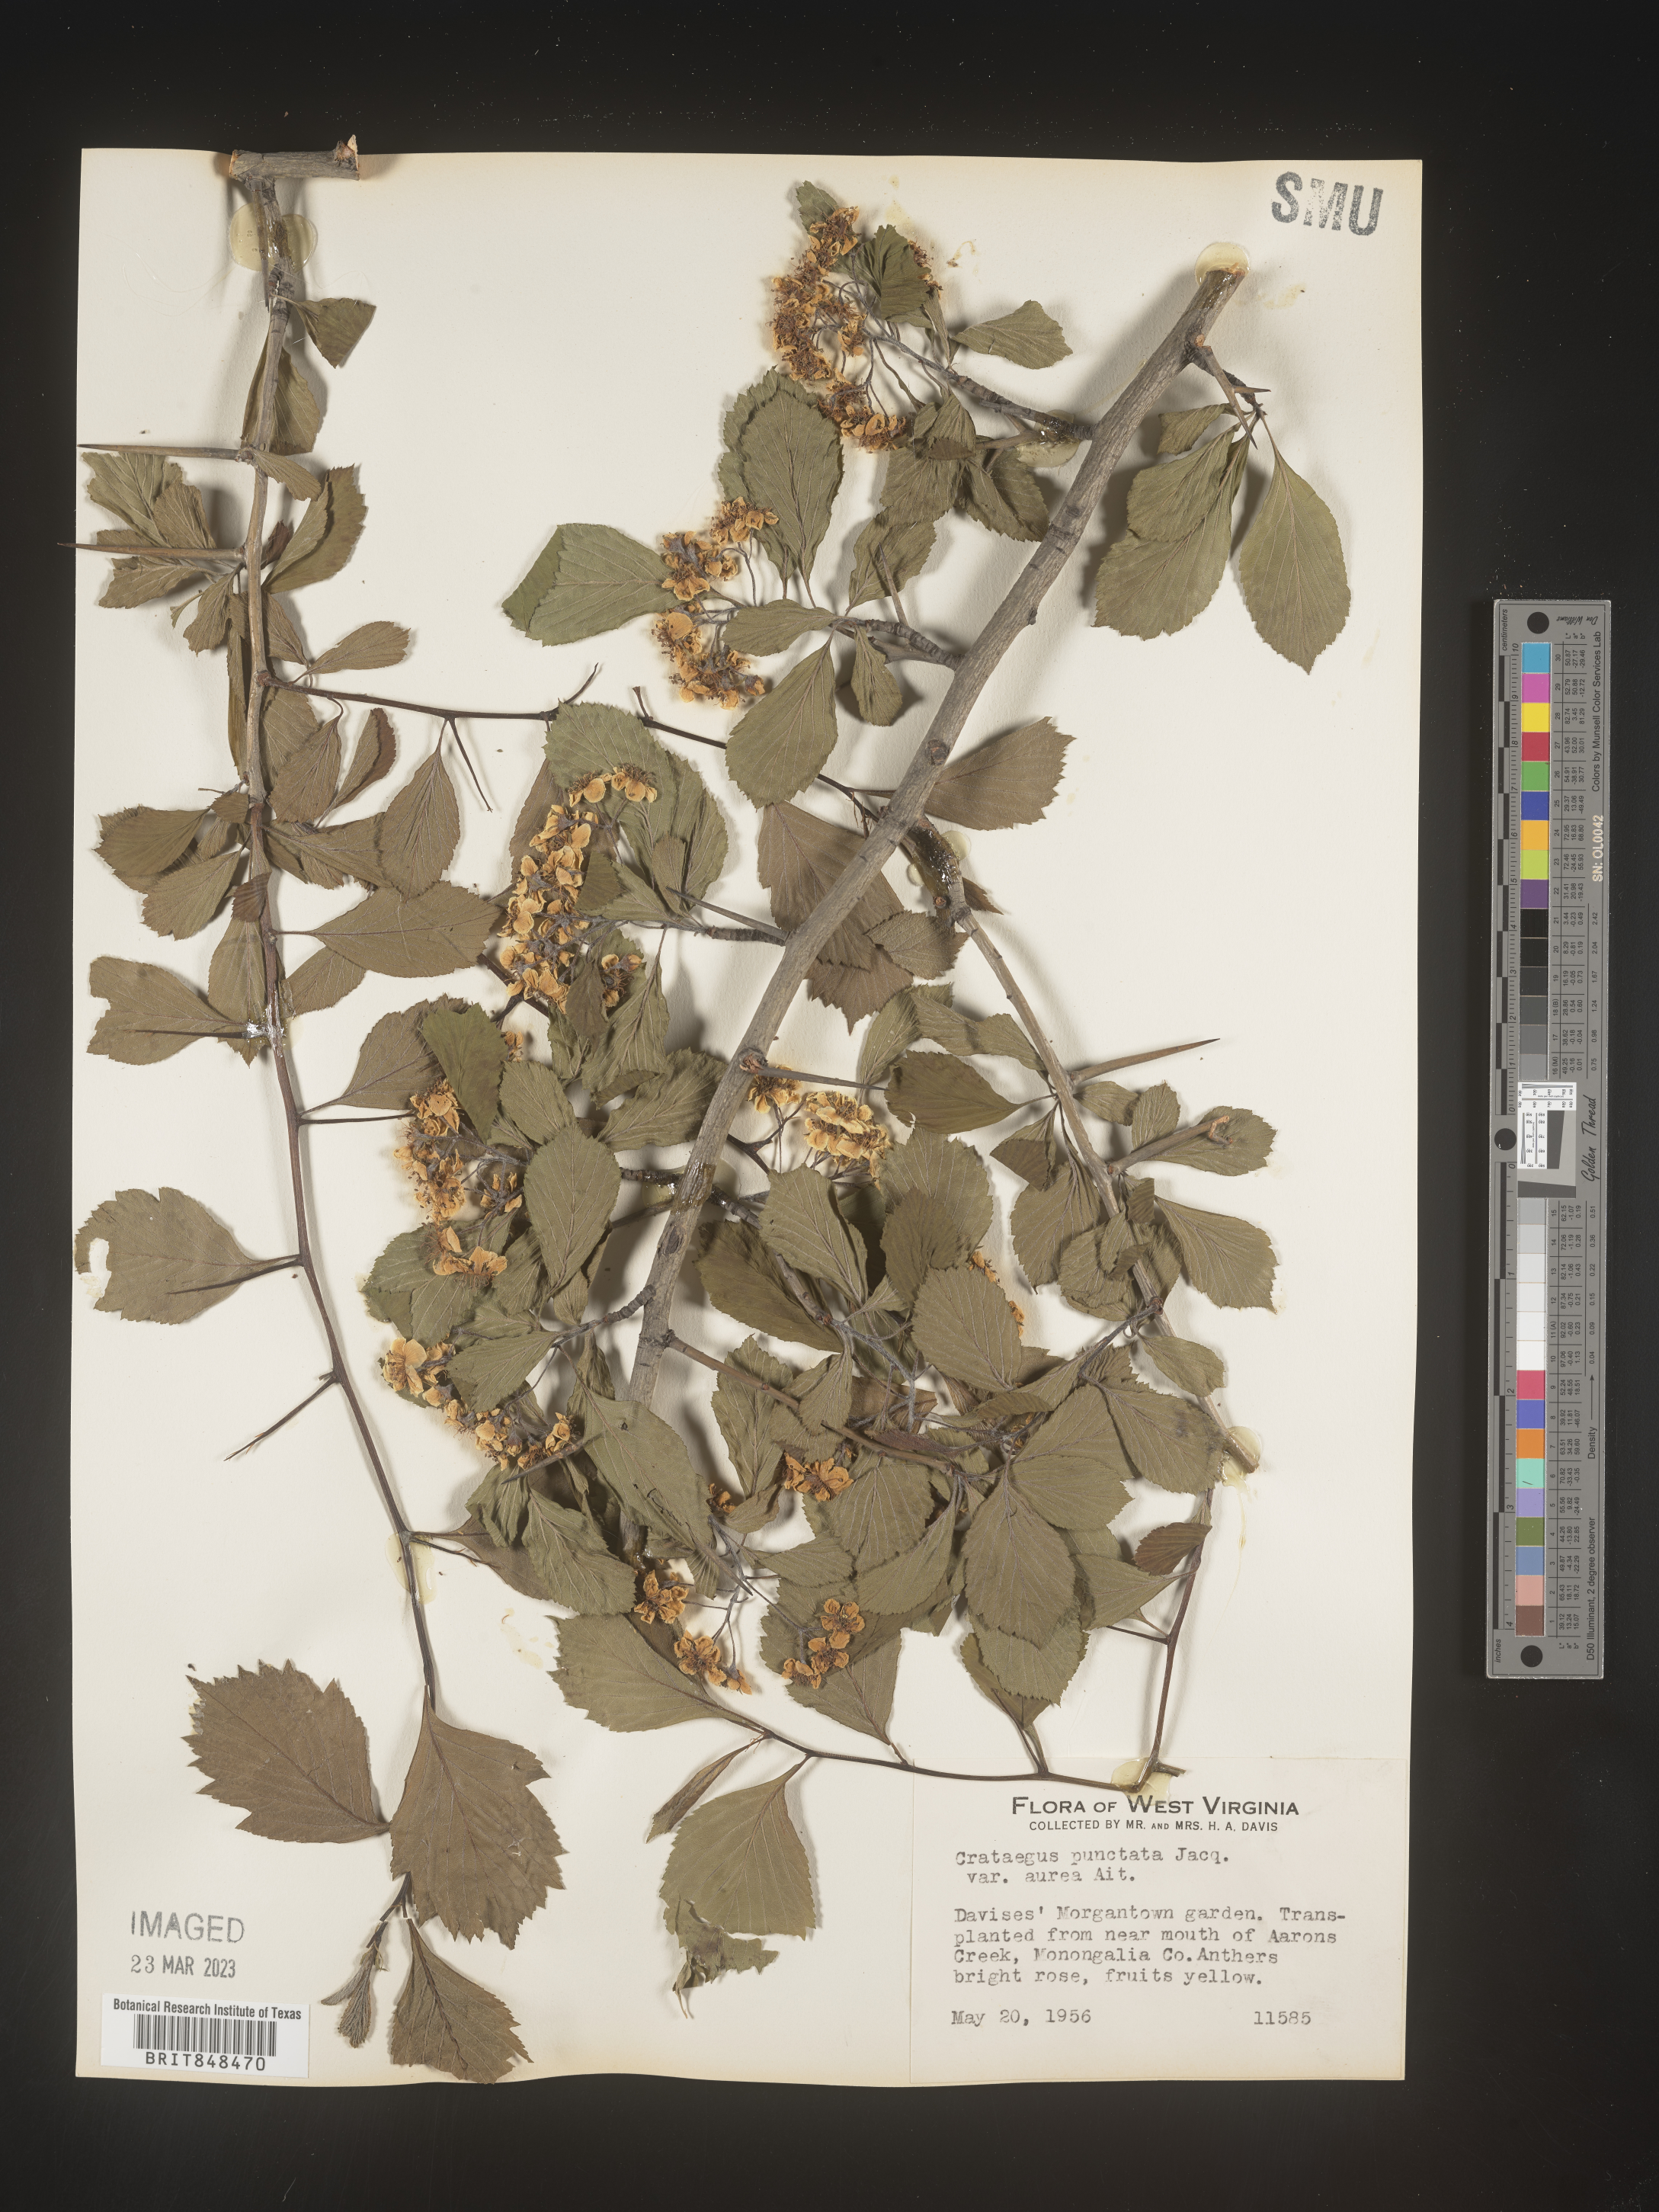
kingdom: Plantae
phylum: Tracheophyta
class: Magnoliopsida
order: Rosales
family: Rosaceae
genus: Crataegus
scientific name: Crataegus punctata
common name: Dotted hawthorn
